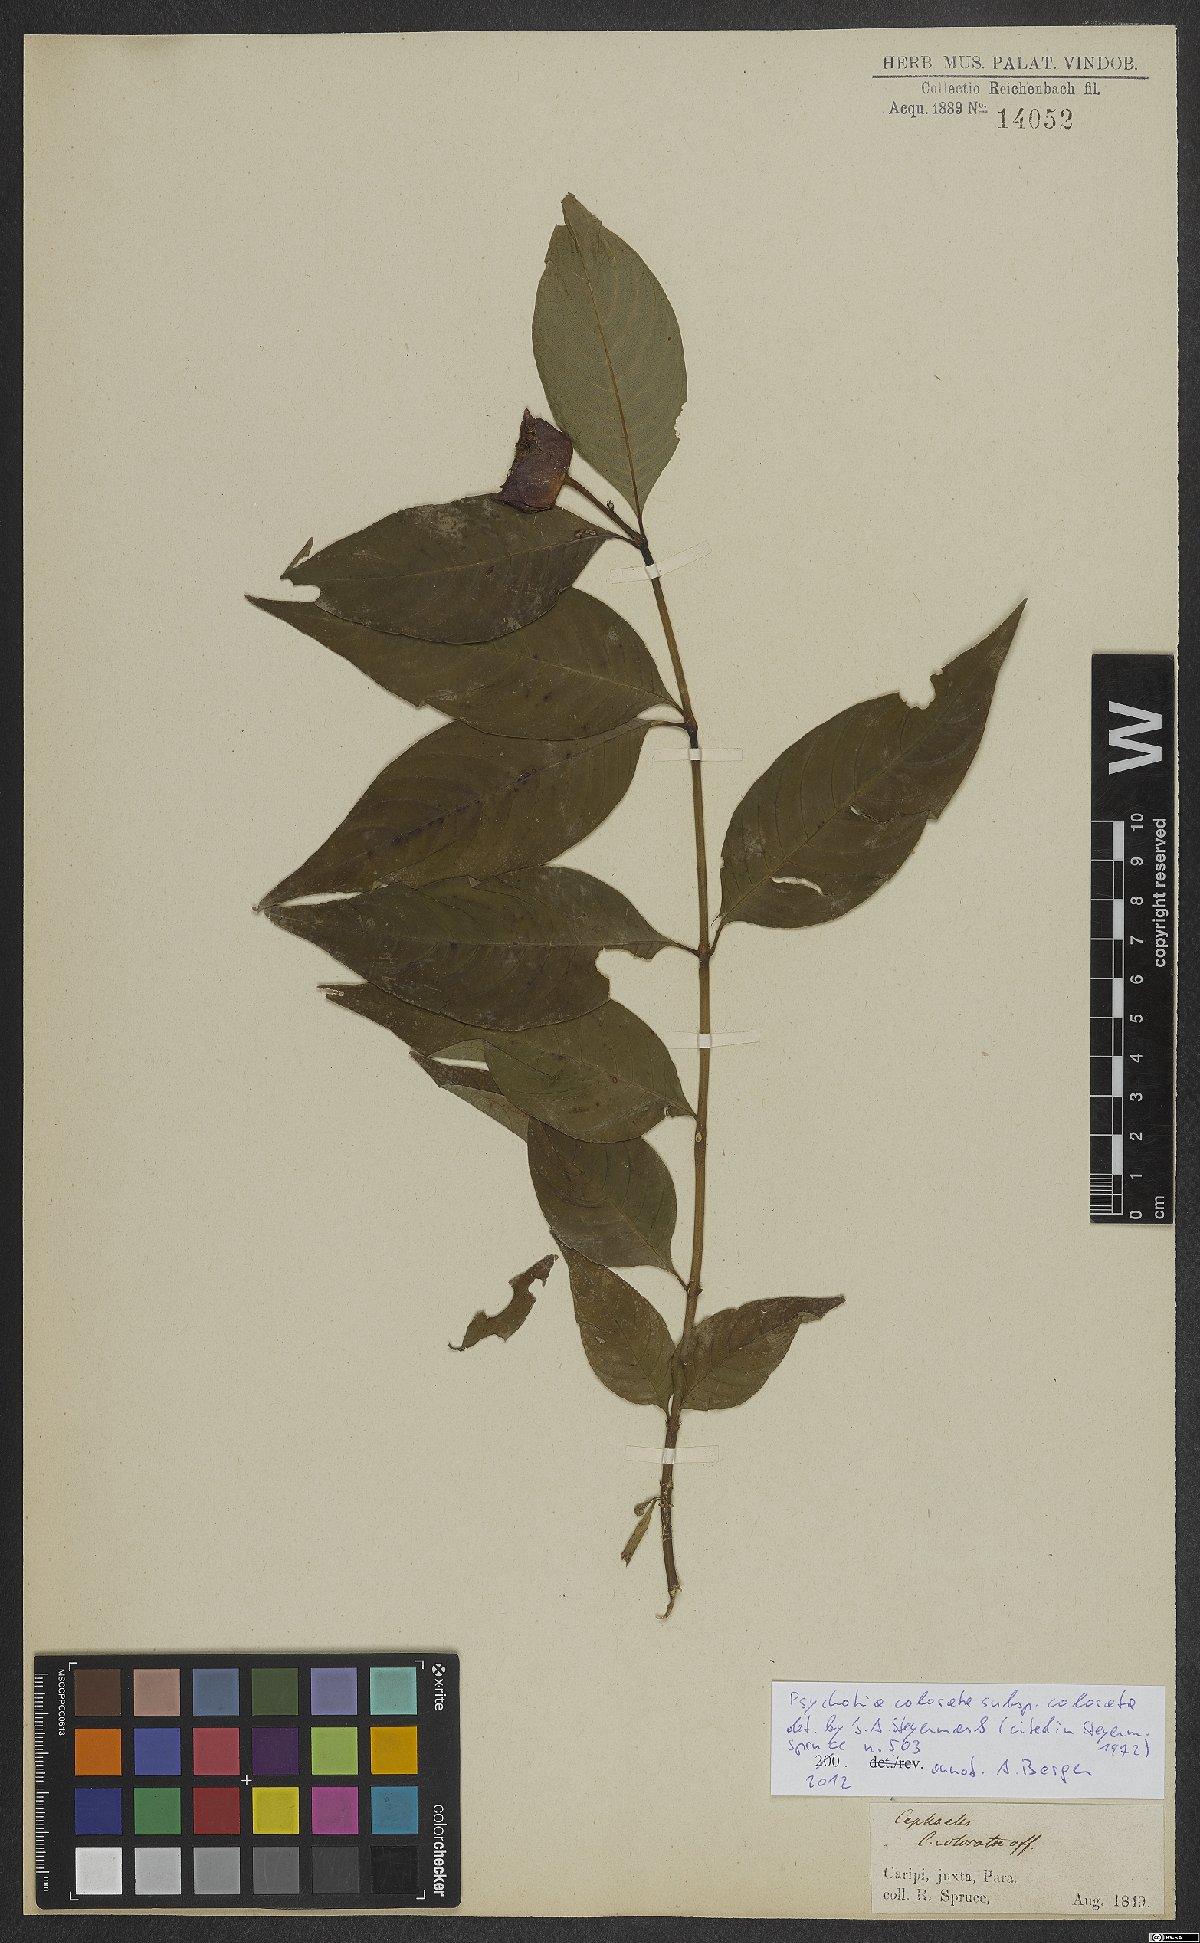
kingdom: Plantae
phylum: Tracheophyta
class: Magnoliopsida
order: Gentianales
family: Rubiaceae
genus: Palicourea
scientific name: Palicourea colorata
